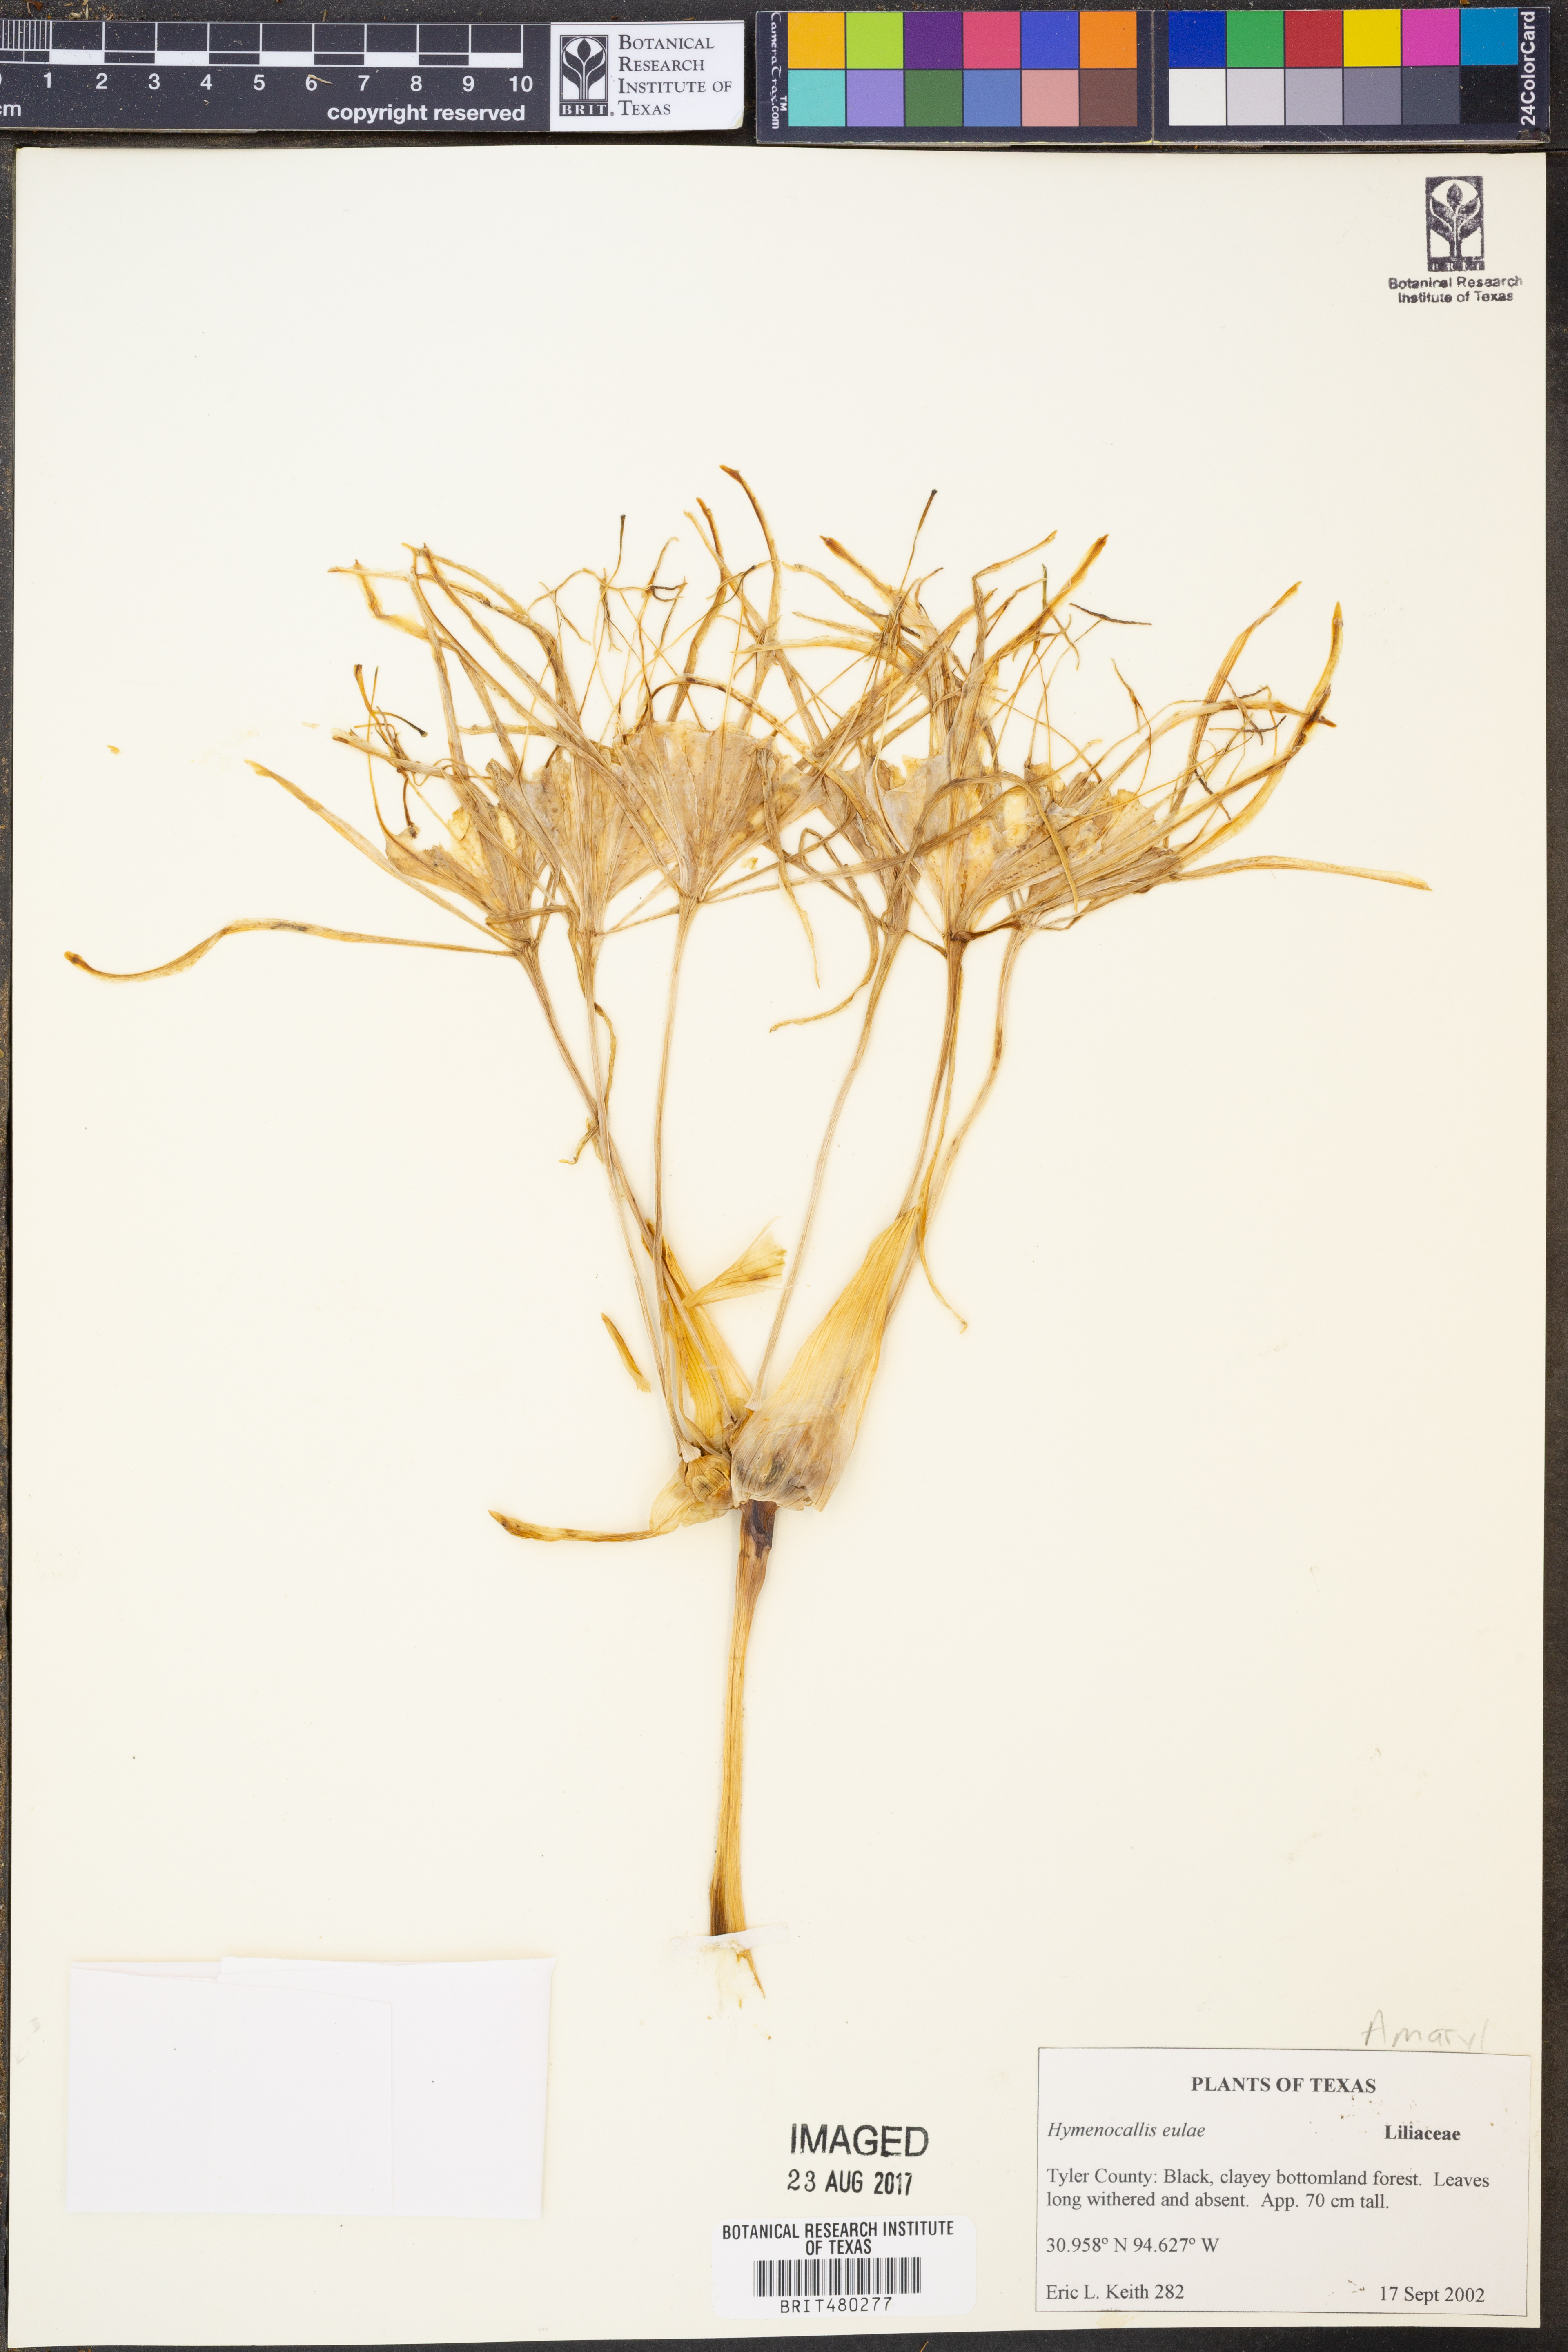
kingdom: Plantae
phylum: Tracheophyta
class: Liliopsida
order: Asparagales
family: Amaryllidaceae
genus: Hymenocallis
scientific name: Hymenocallis occidentalis
